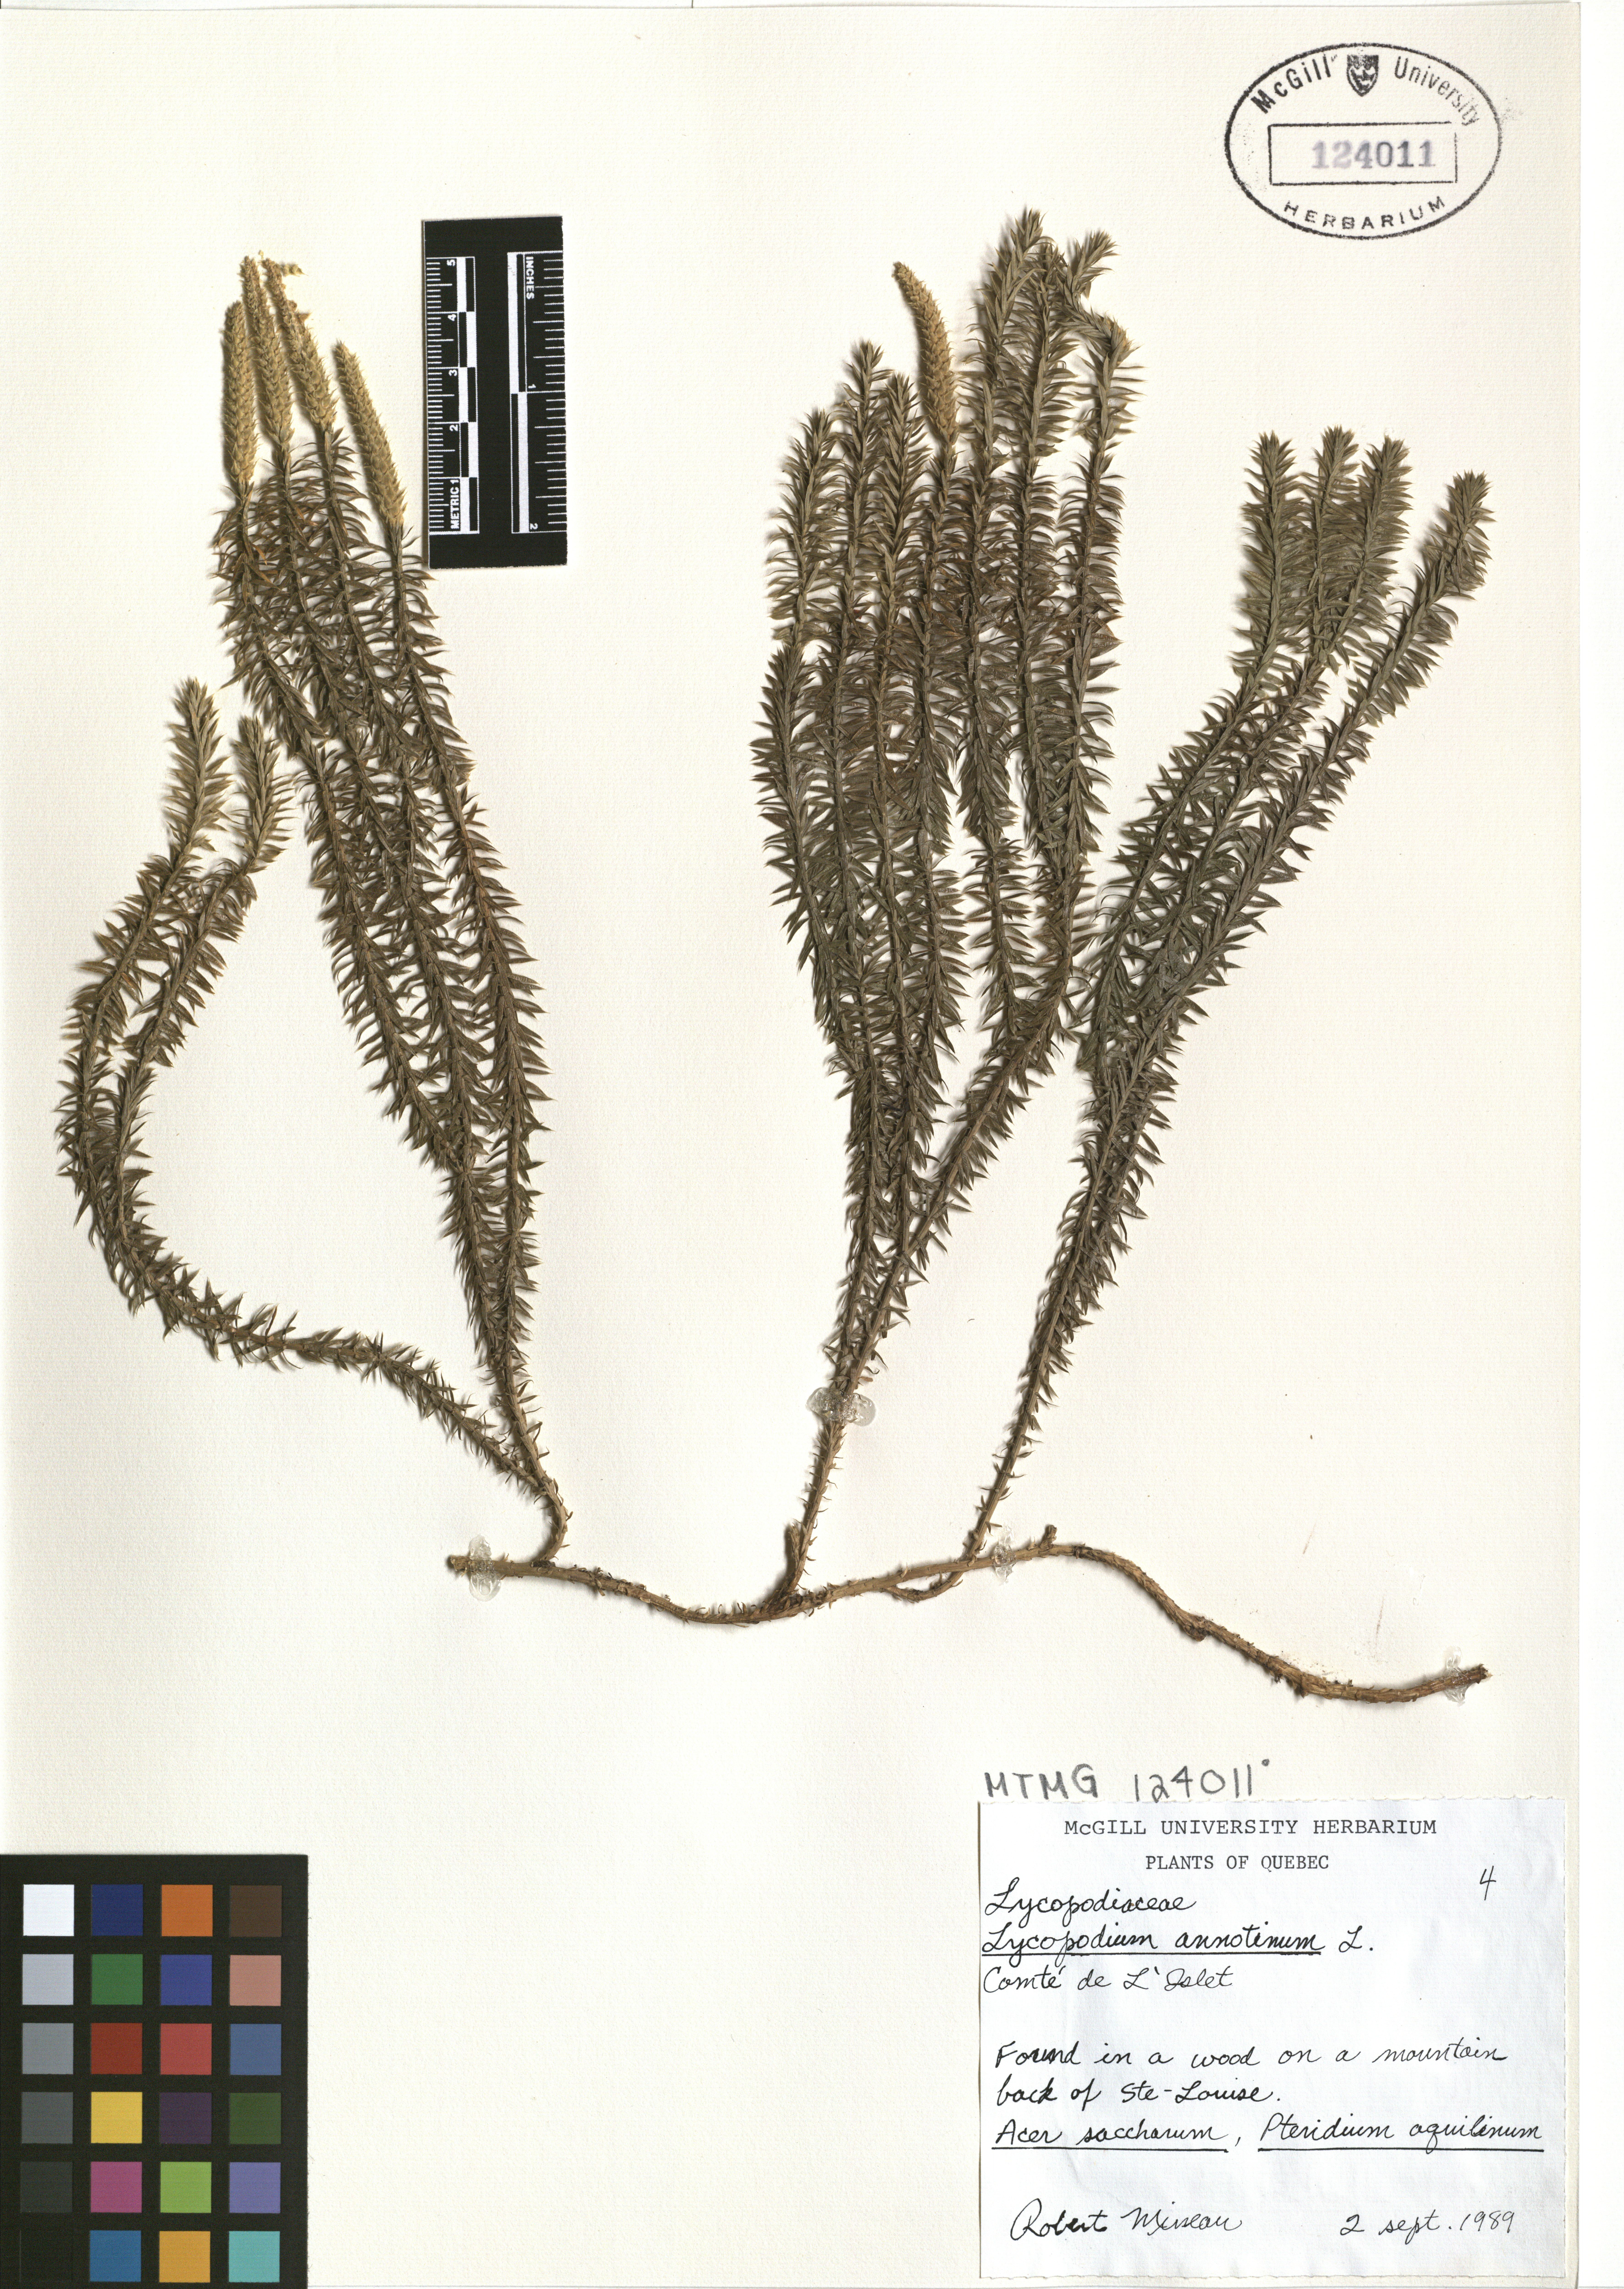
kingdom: Plantae
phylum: Tracheophyta
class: Lycopodiopsida
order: Lycopodiales
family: Lycopodiaceae
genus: Spinulum
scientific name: Spinulum annotinum
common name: Interrupted club-moss
